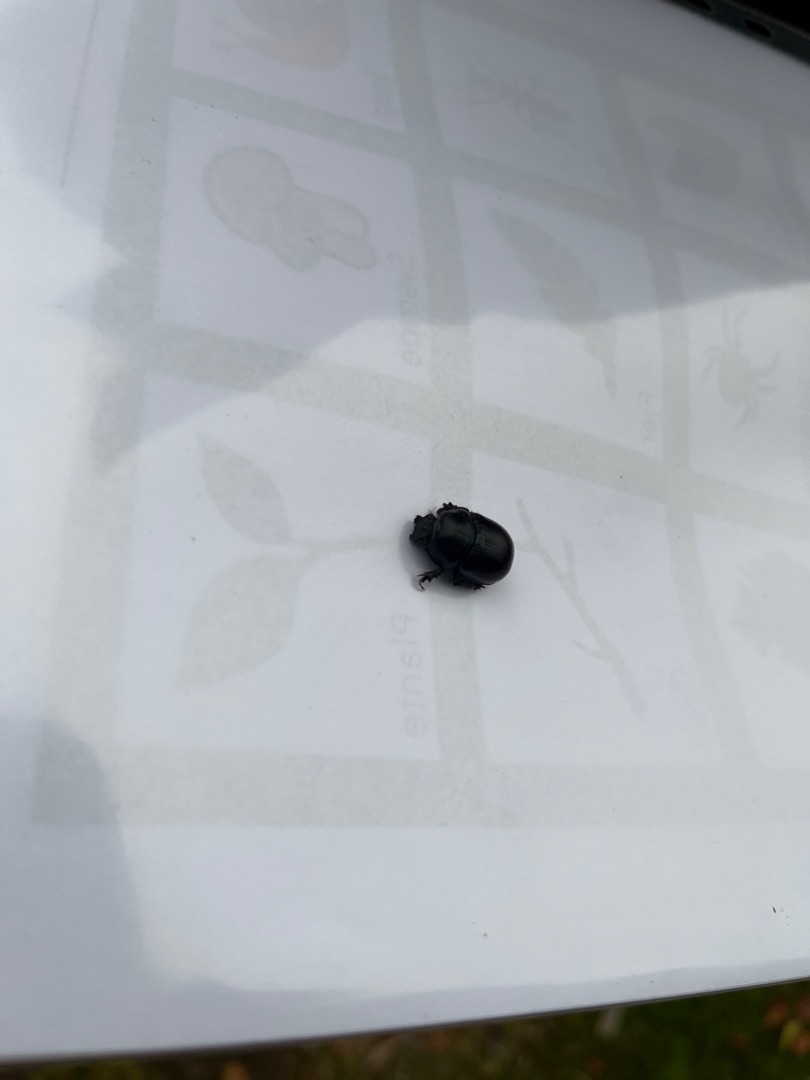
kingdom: Animalia
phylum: Arthropoda
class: Insecta
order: Coleoptera
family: Geotrupidae
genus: Anoplotrupes
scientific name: Anoplotrupes stercorosus
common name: Skovskarnbasse
